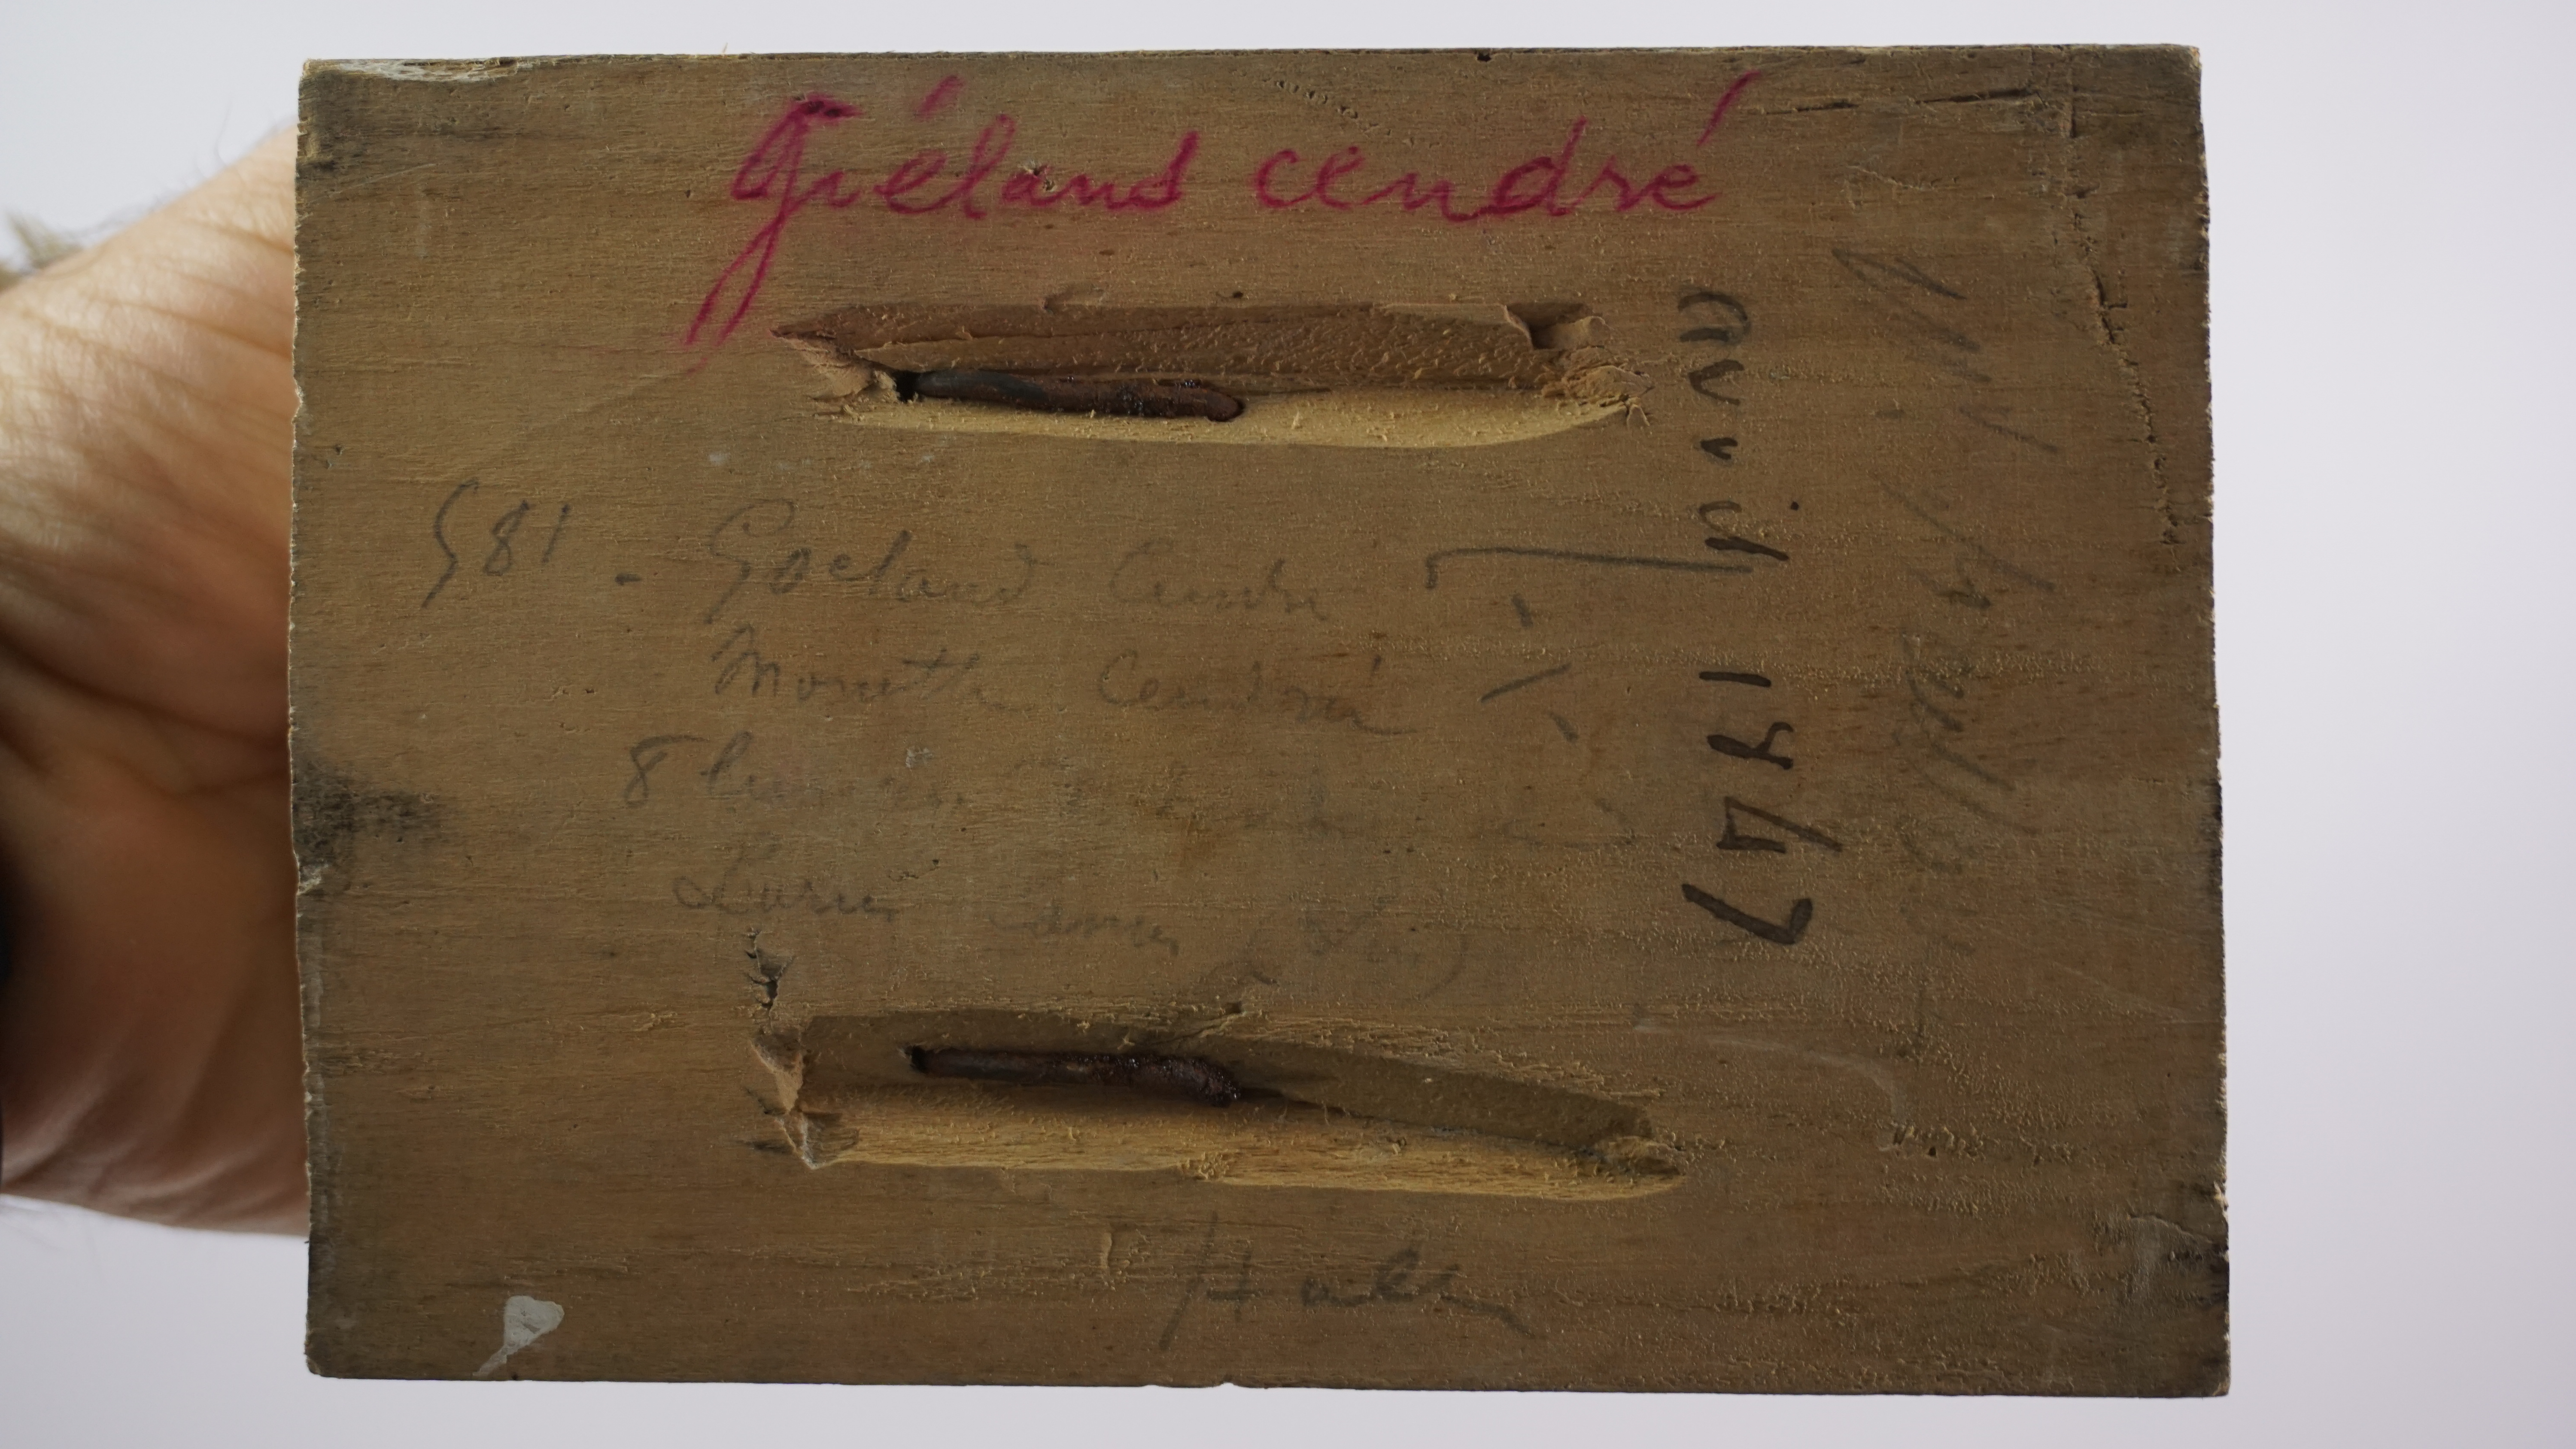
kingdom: Animalia
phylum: Chordata
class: Aves
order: Charadriiformes
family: Laridae
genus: Larus
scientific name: Larus canus
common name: Mew gull
